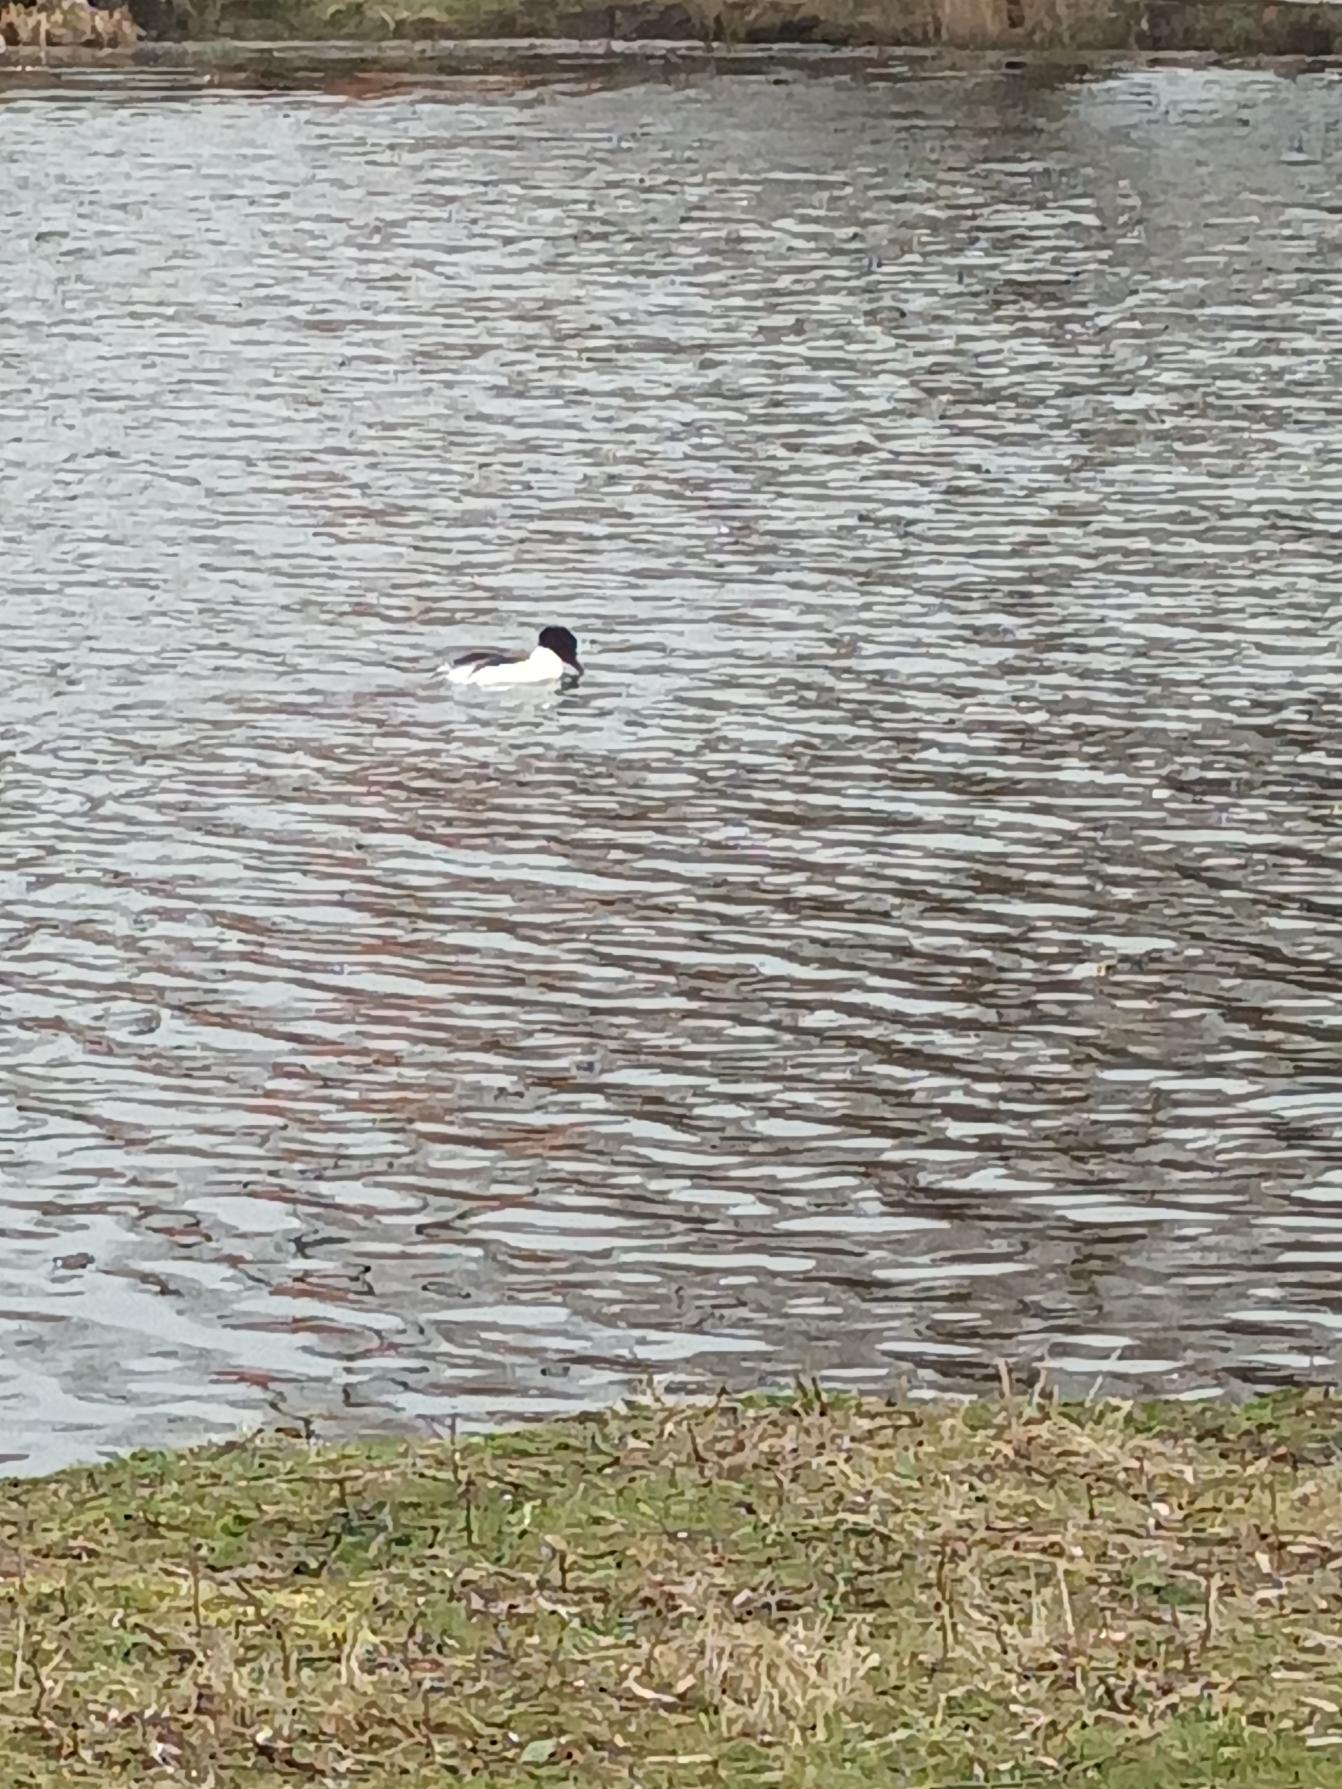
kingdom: Animalia
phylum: Chordata
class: Aves
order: Anseriformes
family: Anatidae
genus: Mergus
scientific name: Mergus merganser
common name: Stor skallesluger
